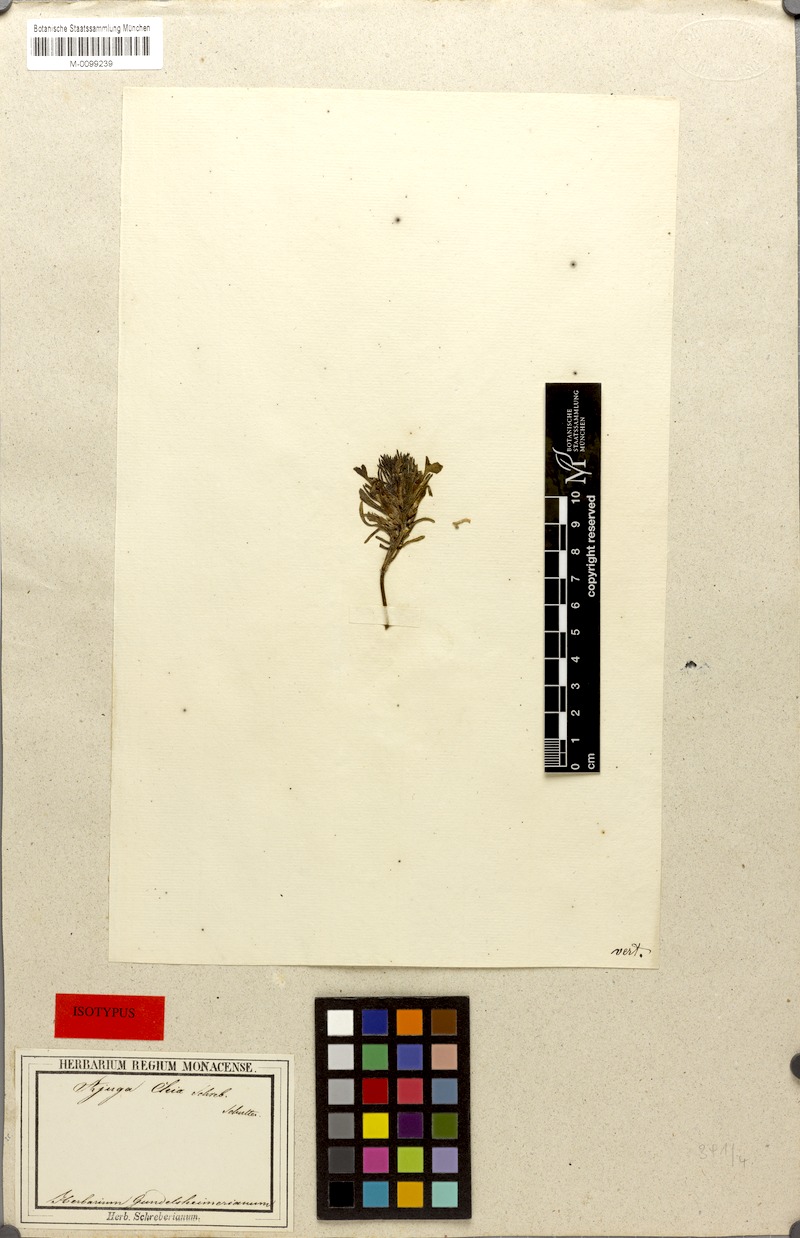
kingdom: Plantae
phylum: Tracheophyta
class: Magnoliopsida
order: Lamiales
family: Lamiaceae
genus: Ajuga
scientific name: Ajuga chamaepitys
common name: Ground-pine
